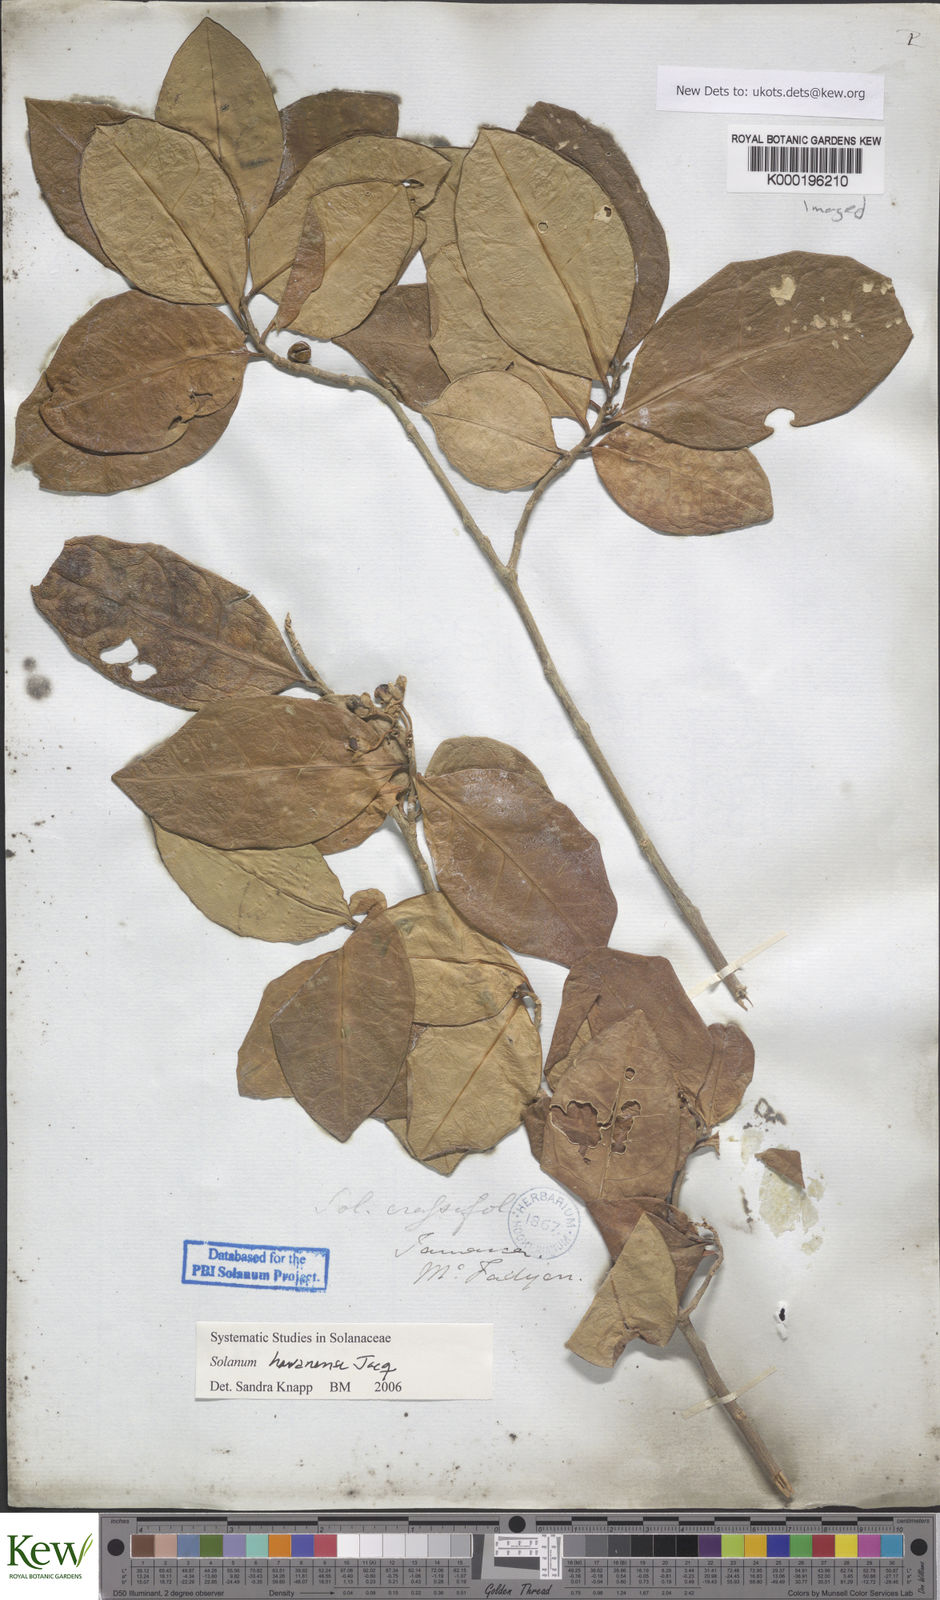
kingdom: Plantae
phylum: Tracheophyta
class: Magnoliopsida
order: Solanales
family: Solanaceae
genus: Solanum
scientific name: Solanum havanense
